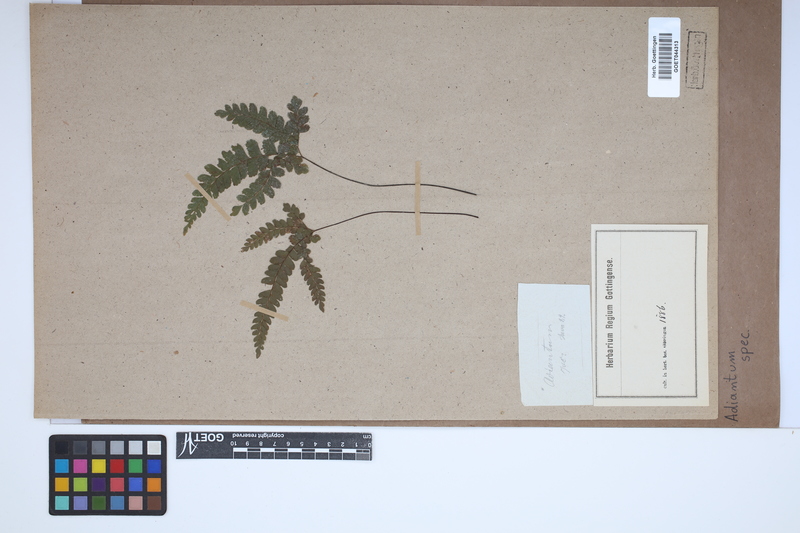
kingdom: Plantae
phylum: Tracheophyta
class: Polypodiopsida
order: Polypodiales
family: Pteridaceae
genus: Adiantum
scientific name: Adiantum
